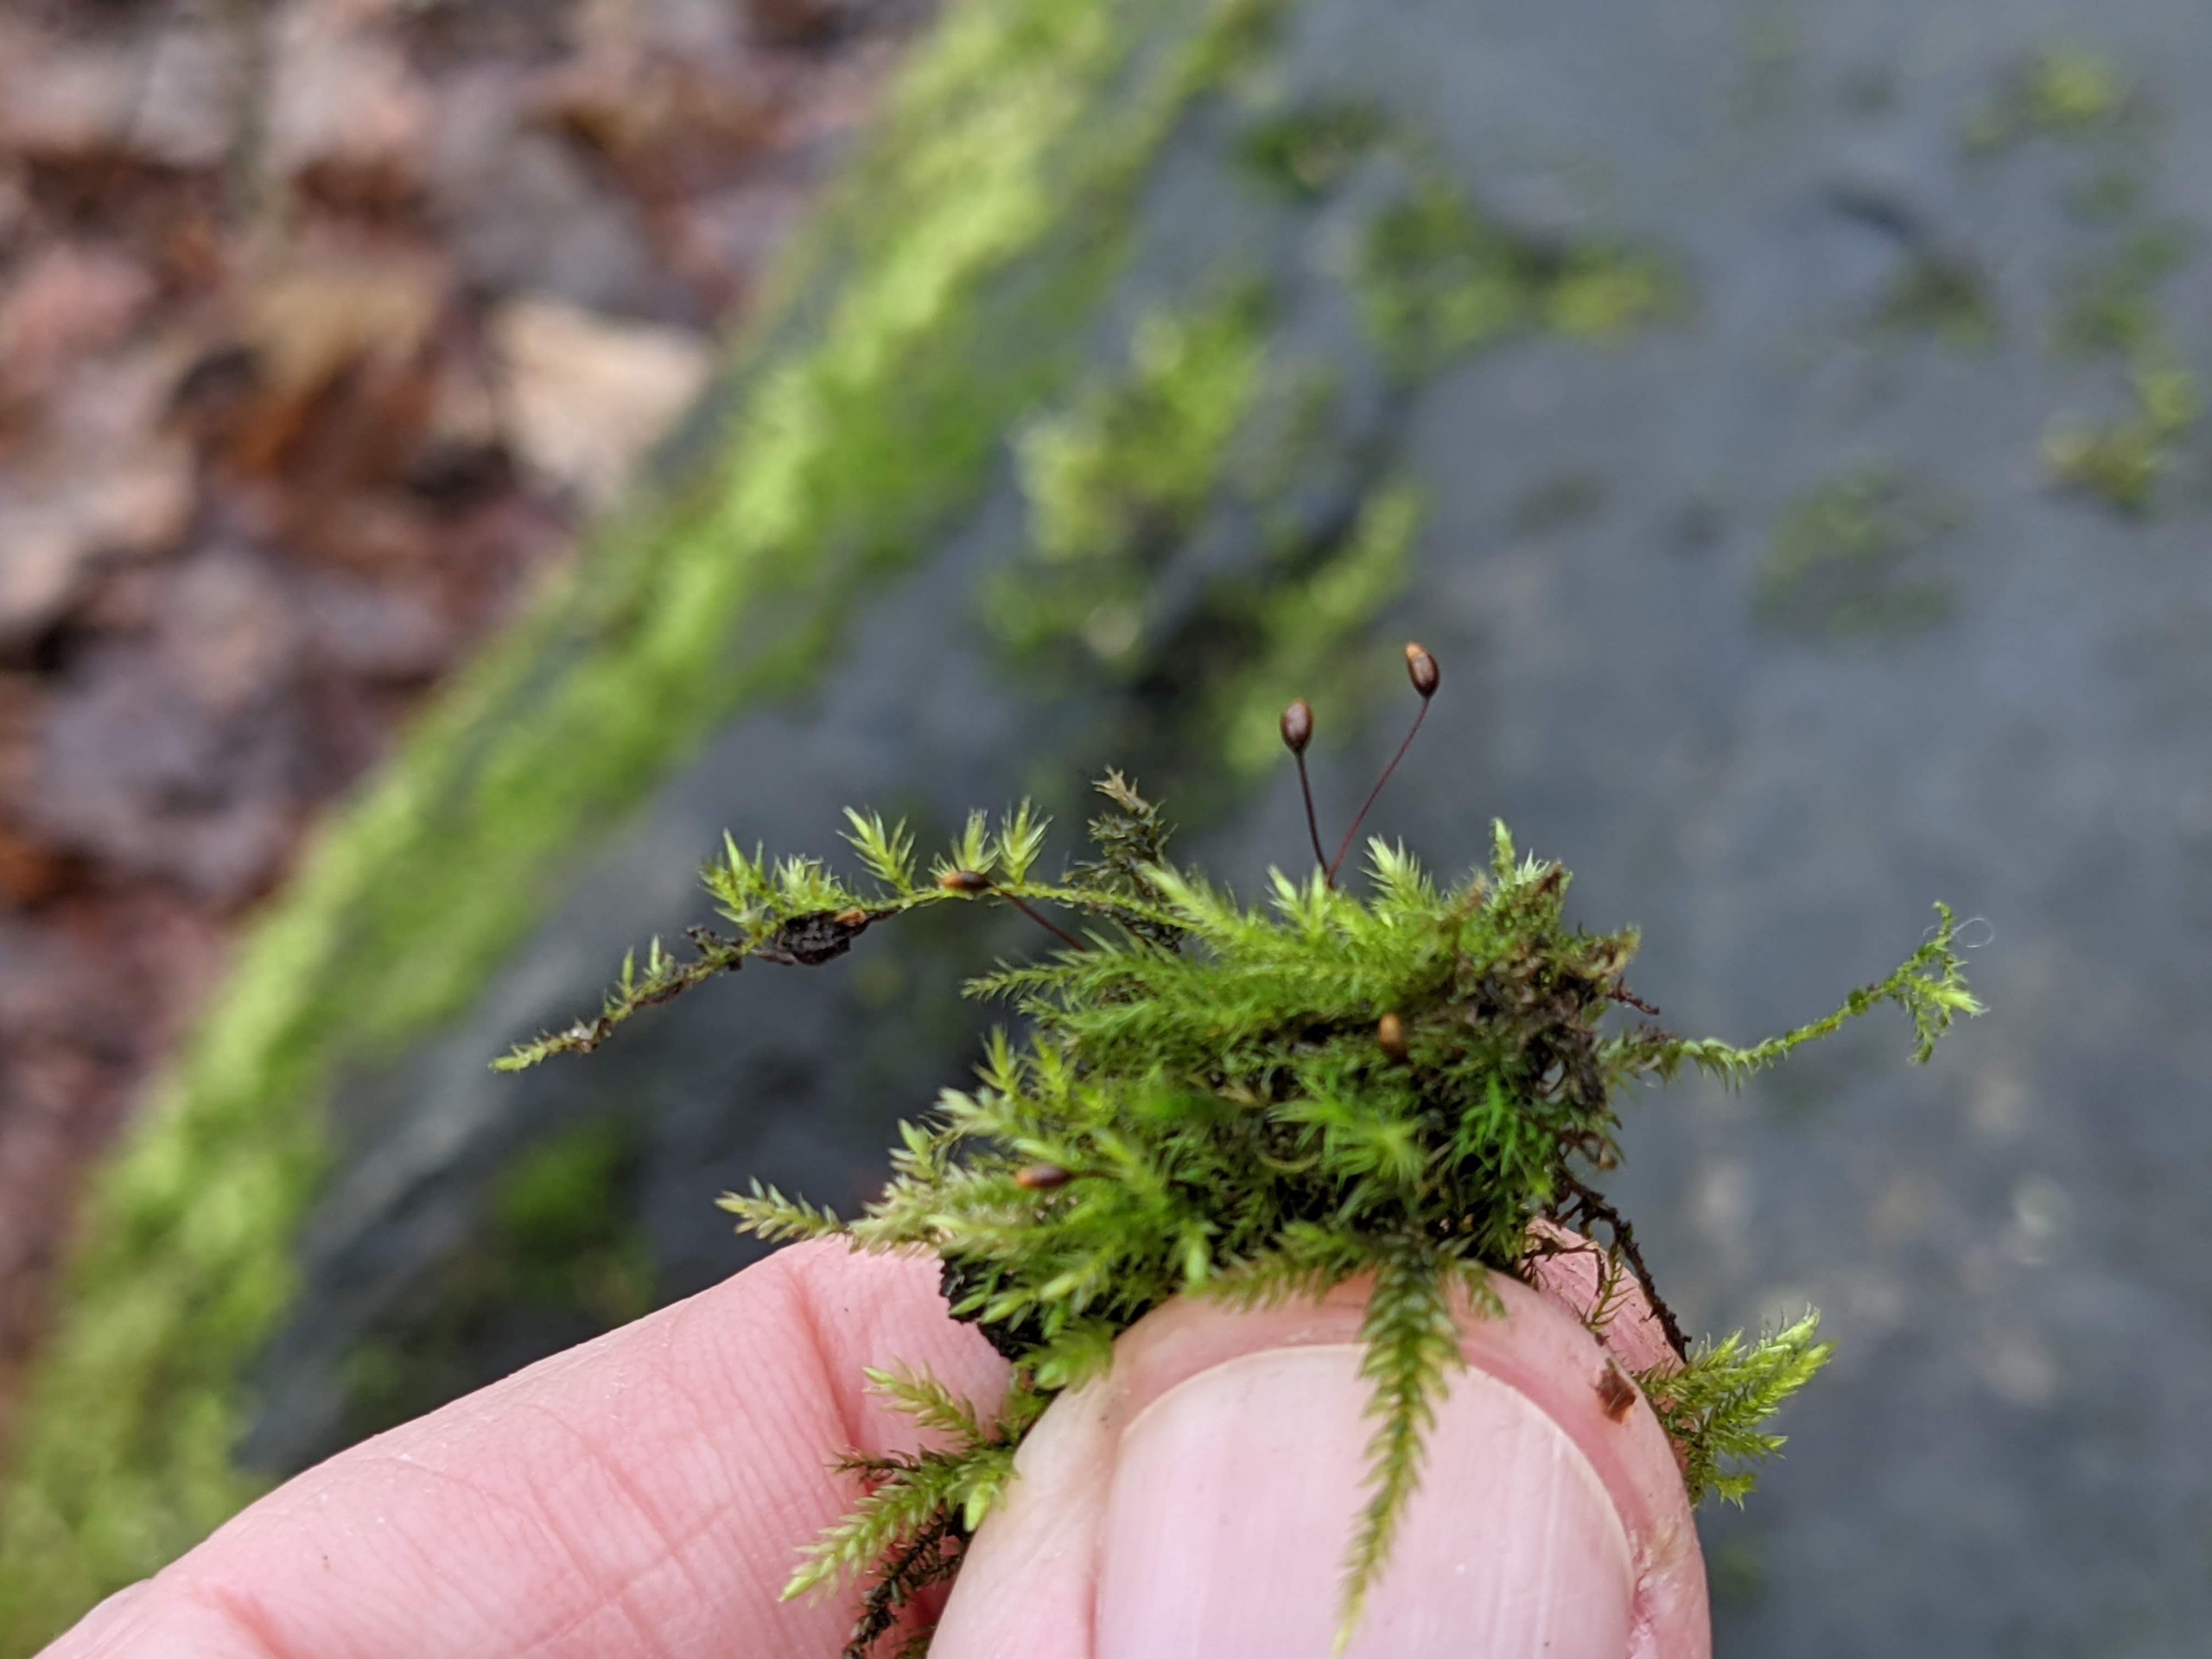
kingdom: Plantae
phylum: Bryophyta
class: Bryopsida
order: Hypnales
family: Brachytheciaceae
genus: Sciuro-hypnum
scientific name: Sciuro-hypnum populeum
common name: Park-kortkapsel
